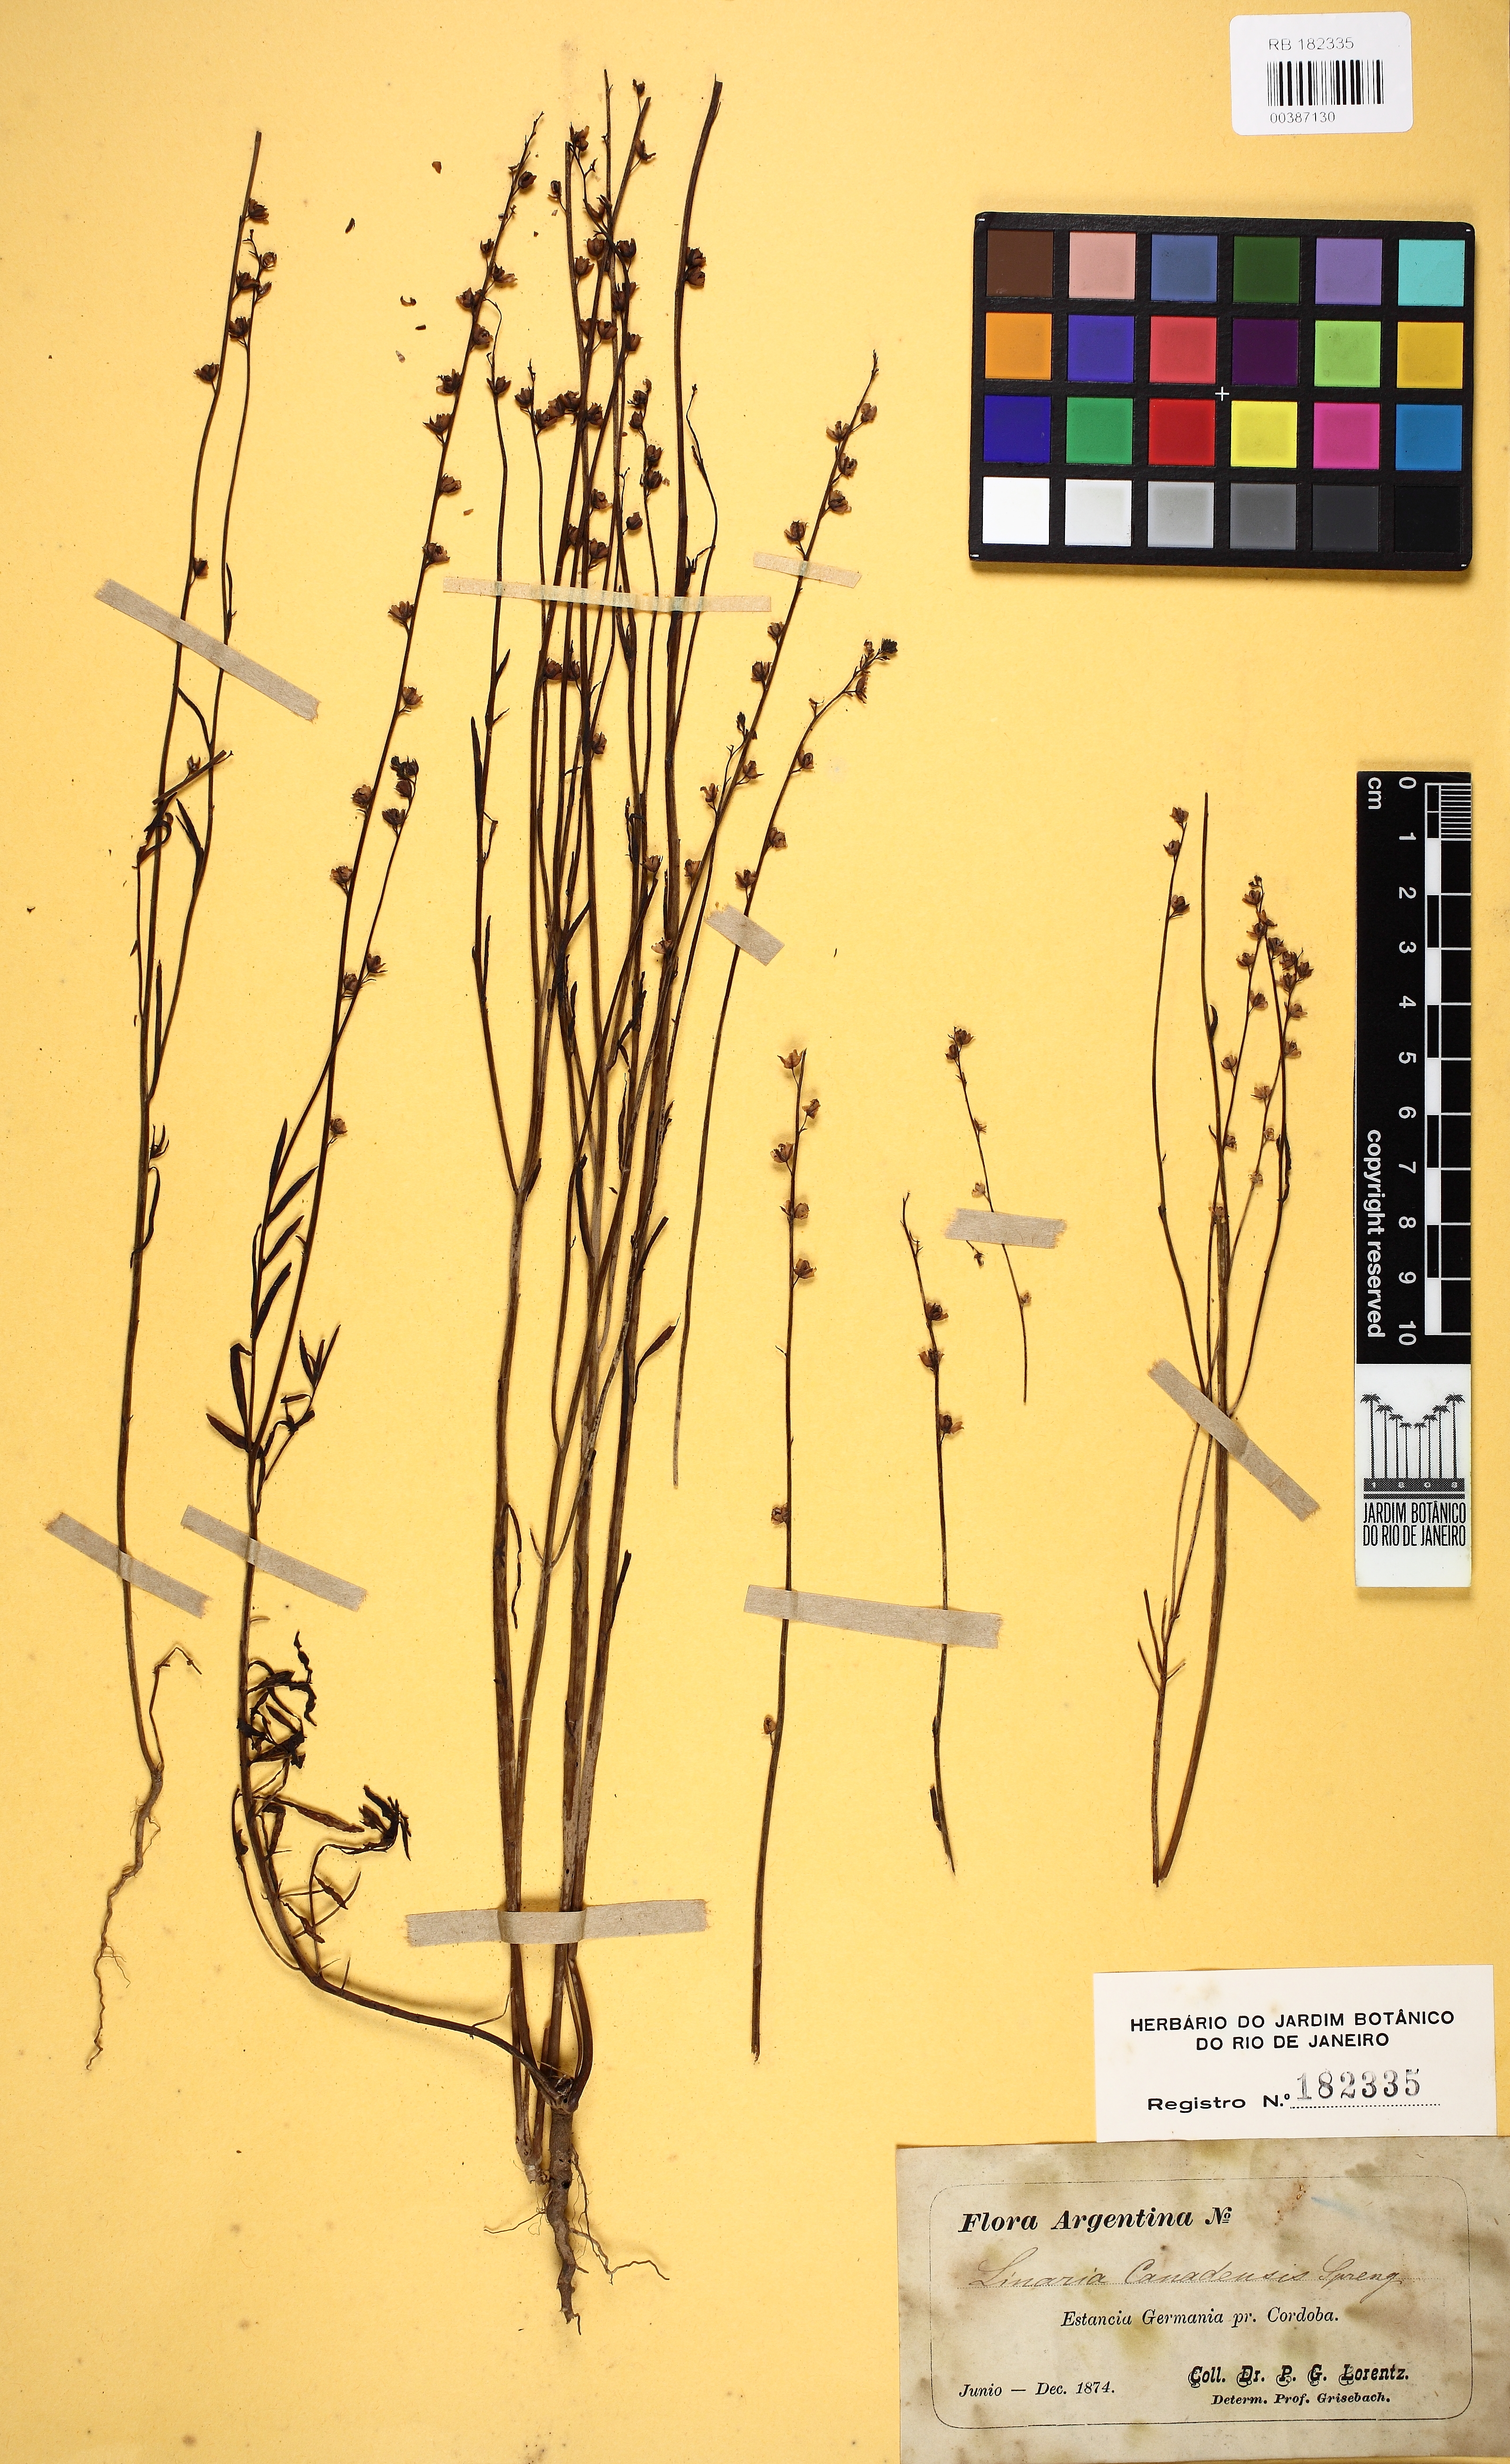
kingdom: Plantae
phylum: Tracheophyta
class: Magnoliopsida
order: Lamiales
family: Plantaginaceae
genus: Nuttallanthus
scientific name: Nuttallanthus canadensis
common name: Blue toadflax
